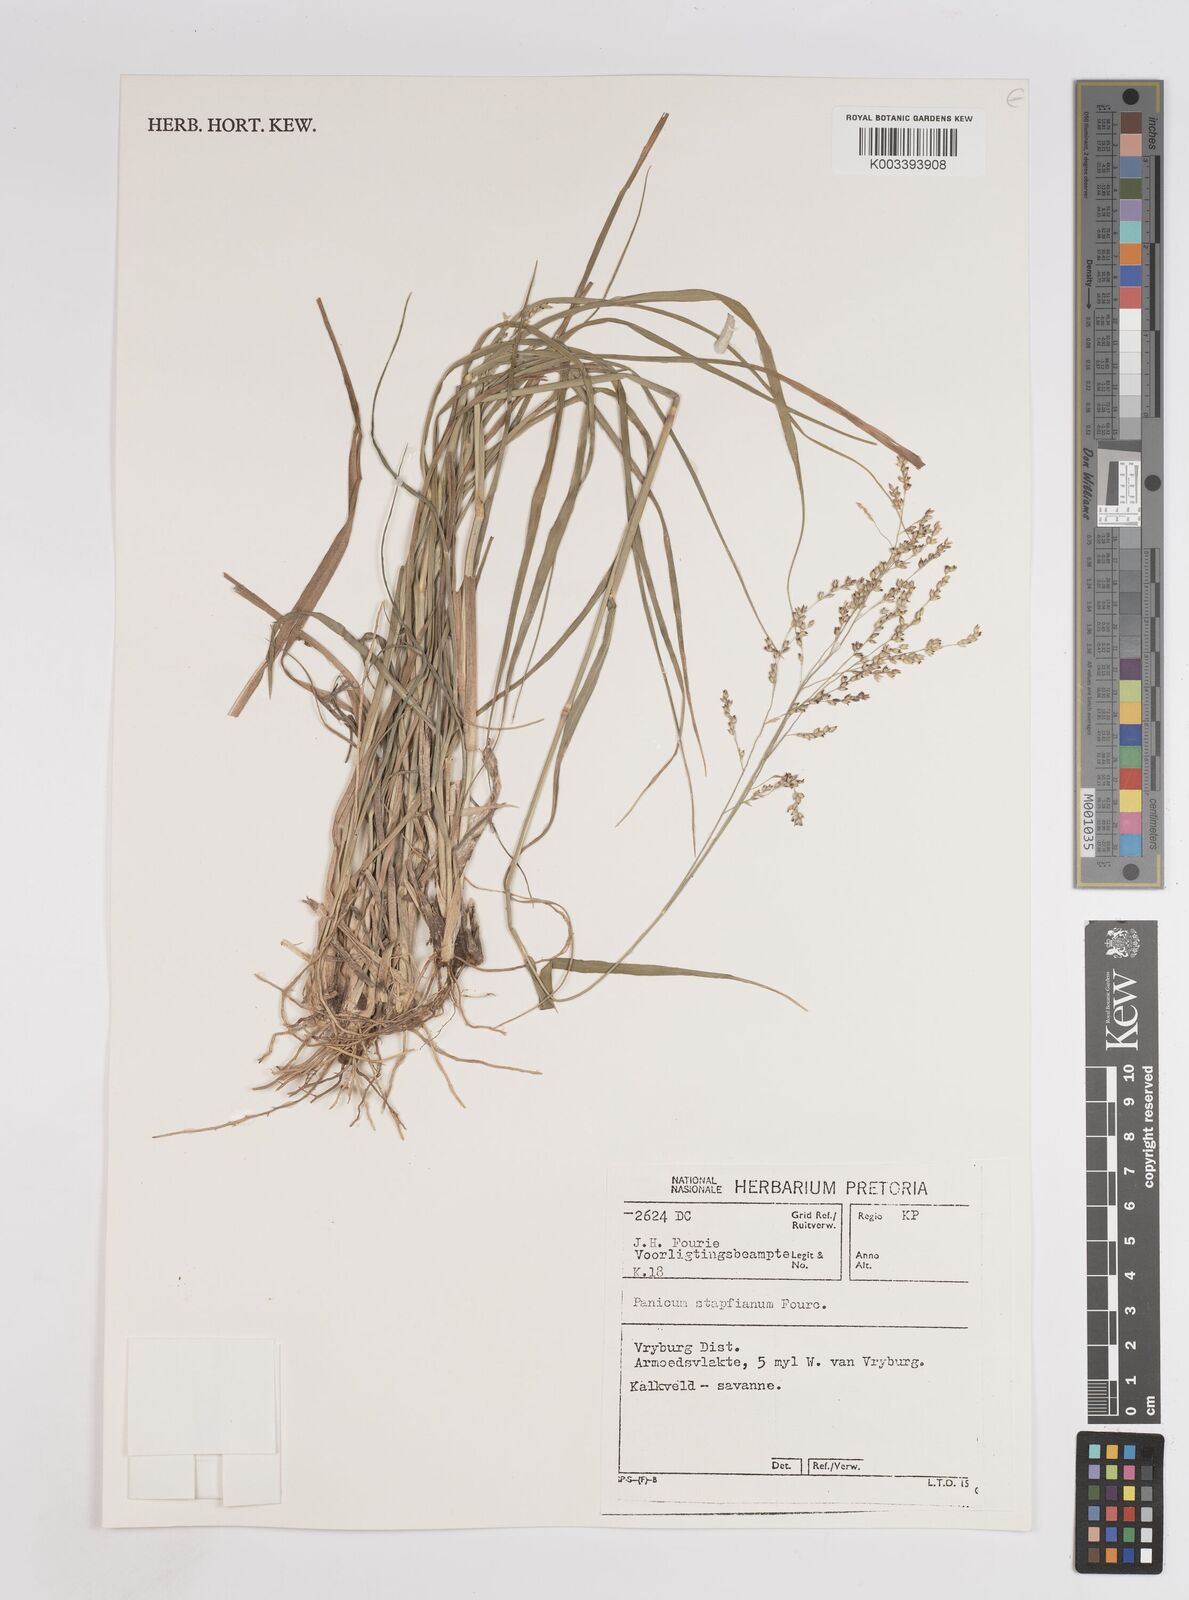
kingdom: Plantae
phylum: Tracheophyta
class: Liliopsida
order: Poales
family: Poaceae
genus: Panicum
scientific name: Panicum stapfianum
